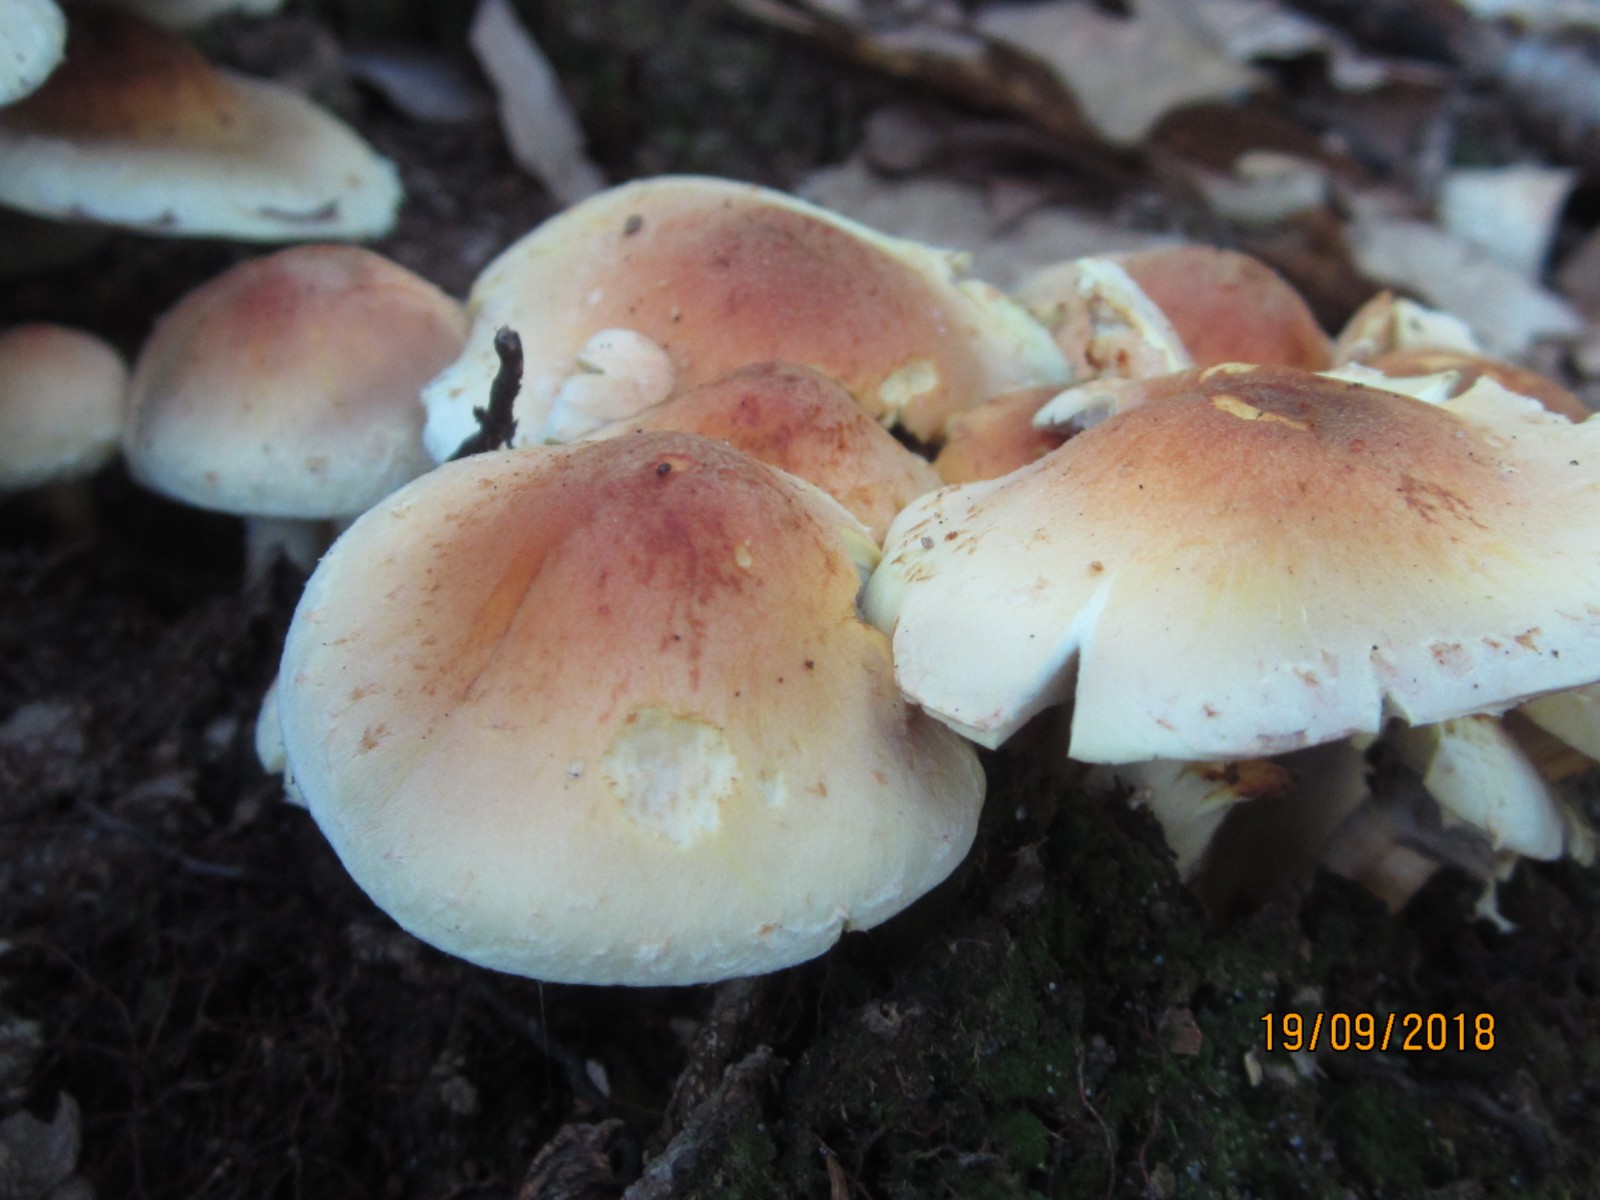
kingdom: Fungi
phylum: Basidiomycota
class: Agaricomycetes
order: Agaricales
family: Strophariaceae
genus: Hypholoma
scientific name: Hypholoma fasciculare
